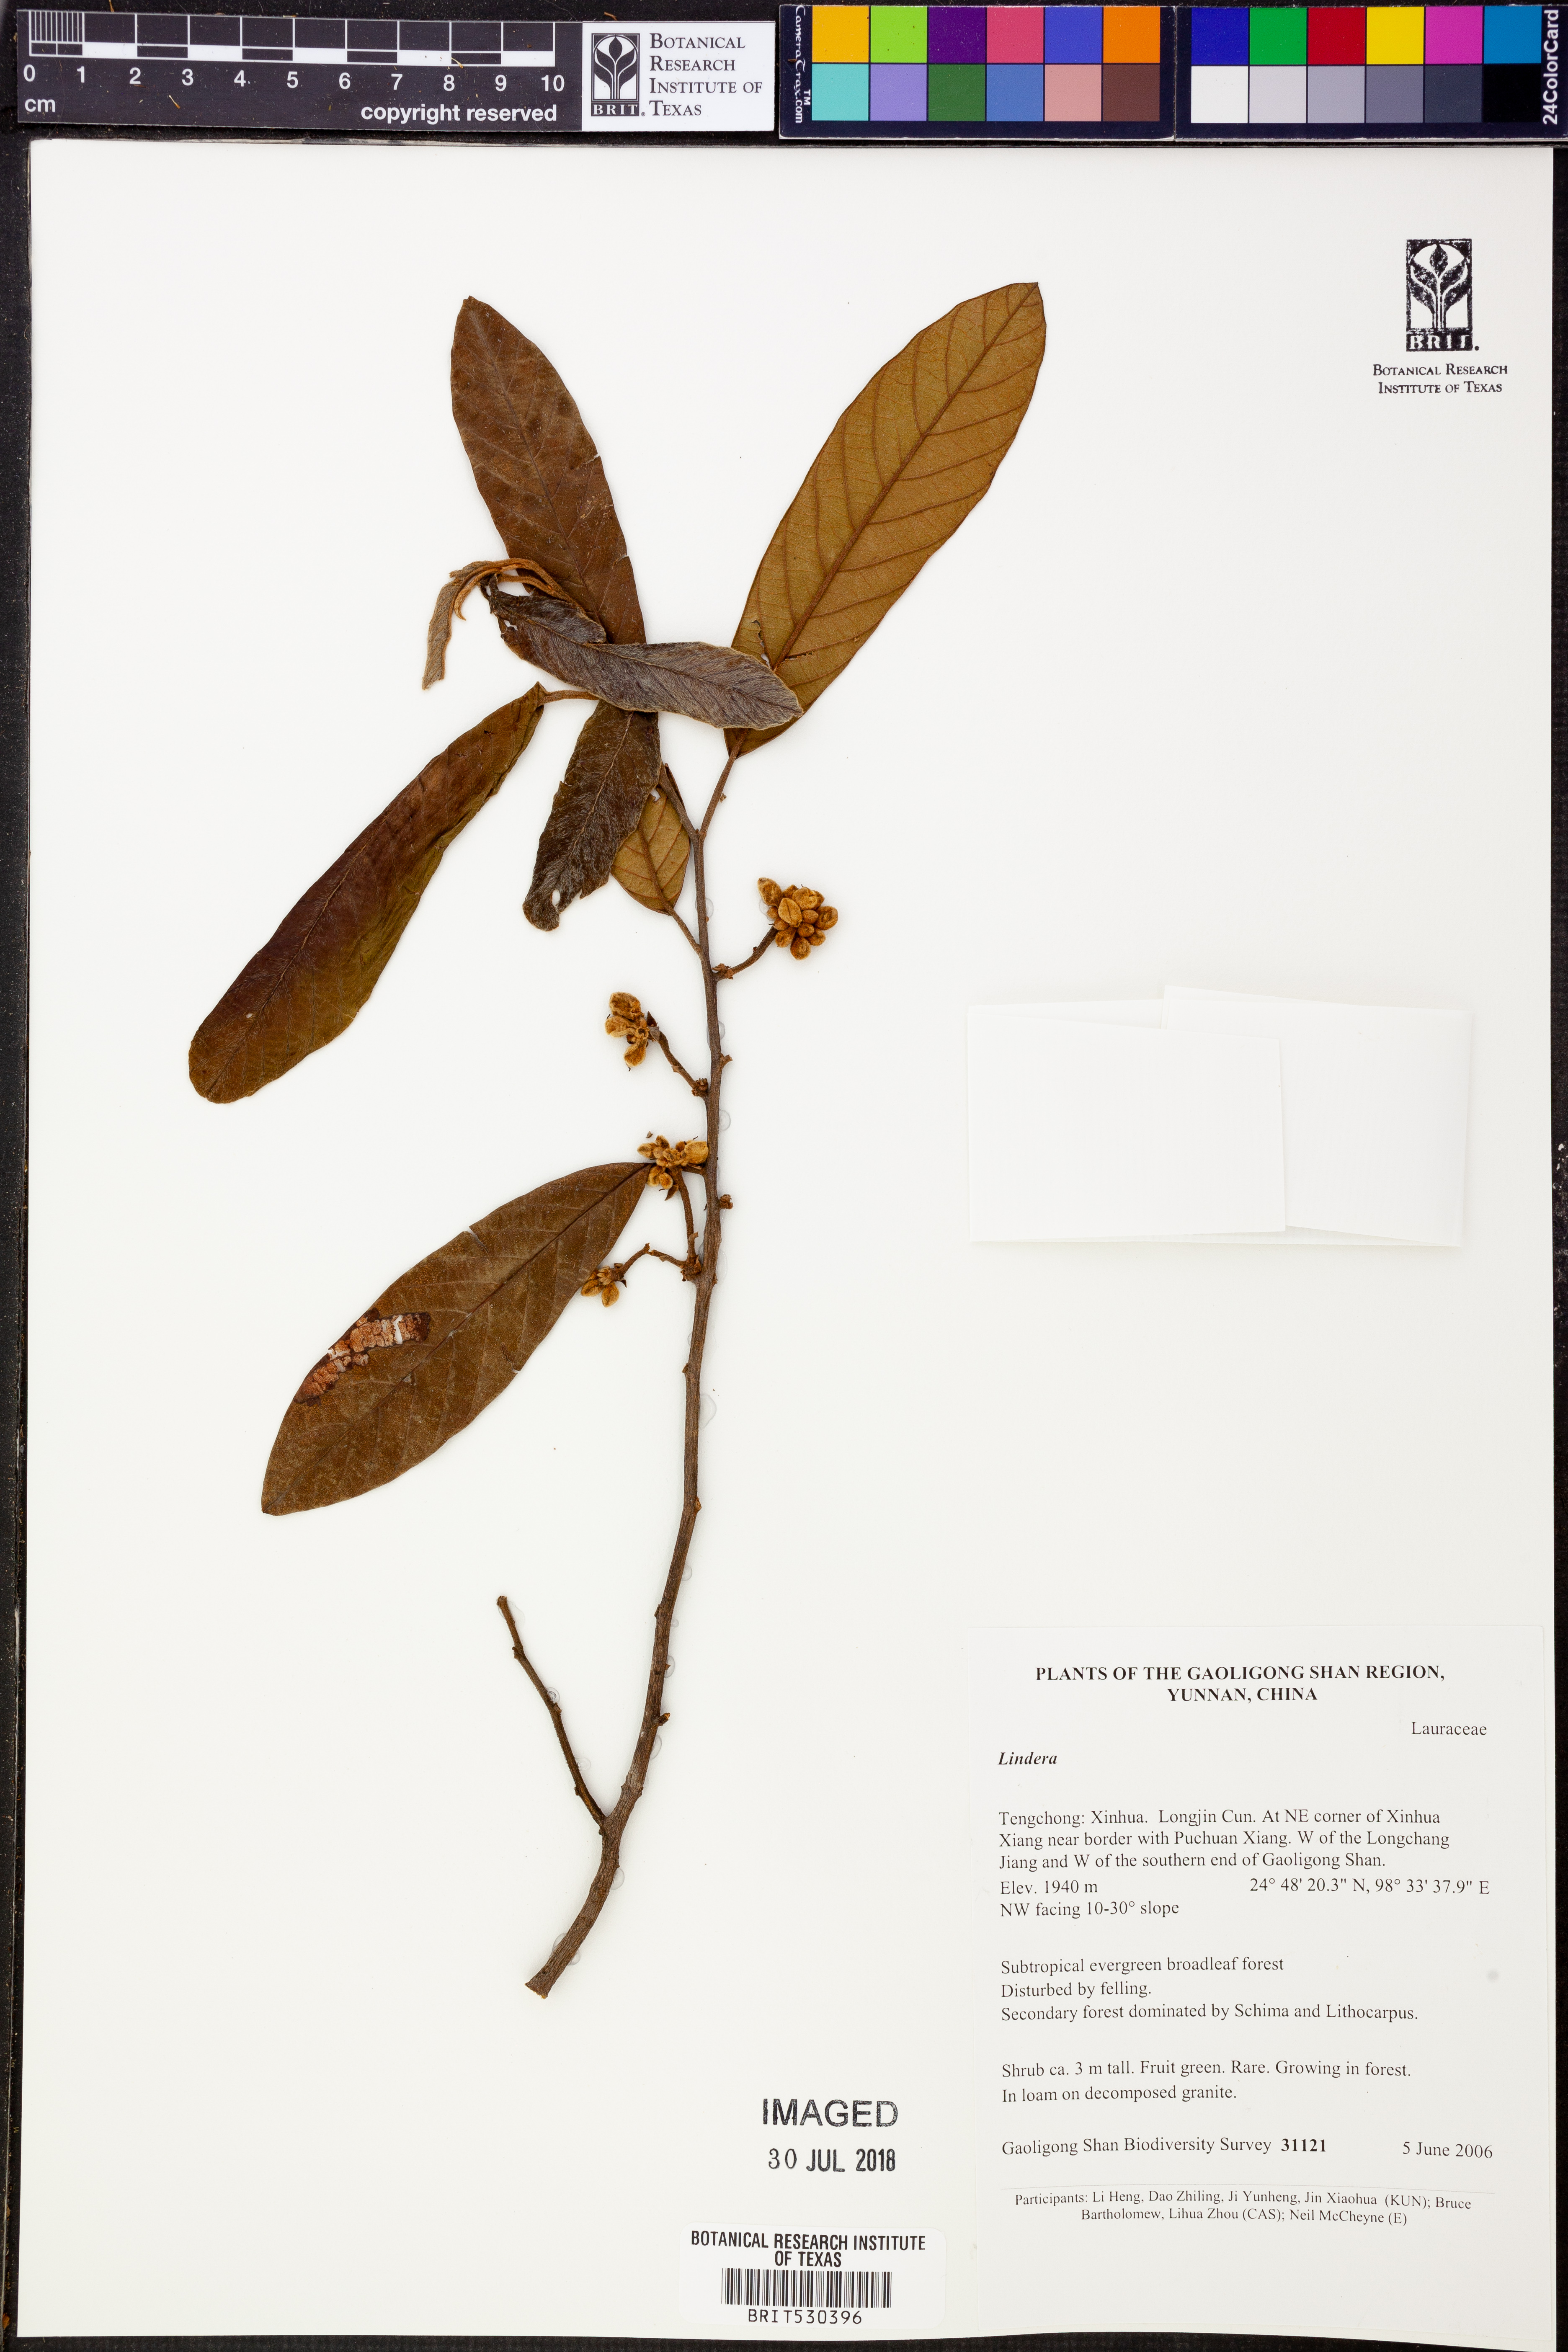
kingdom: Plantae
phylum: Tracheophyta
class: Magnoliopsida
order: Laurales
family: Lauraceae
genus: Lindera
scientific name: Lindera
